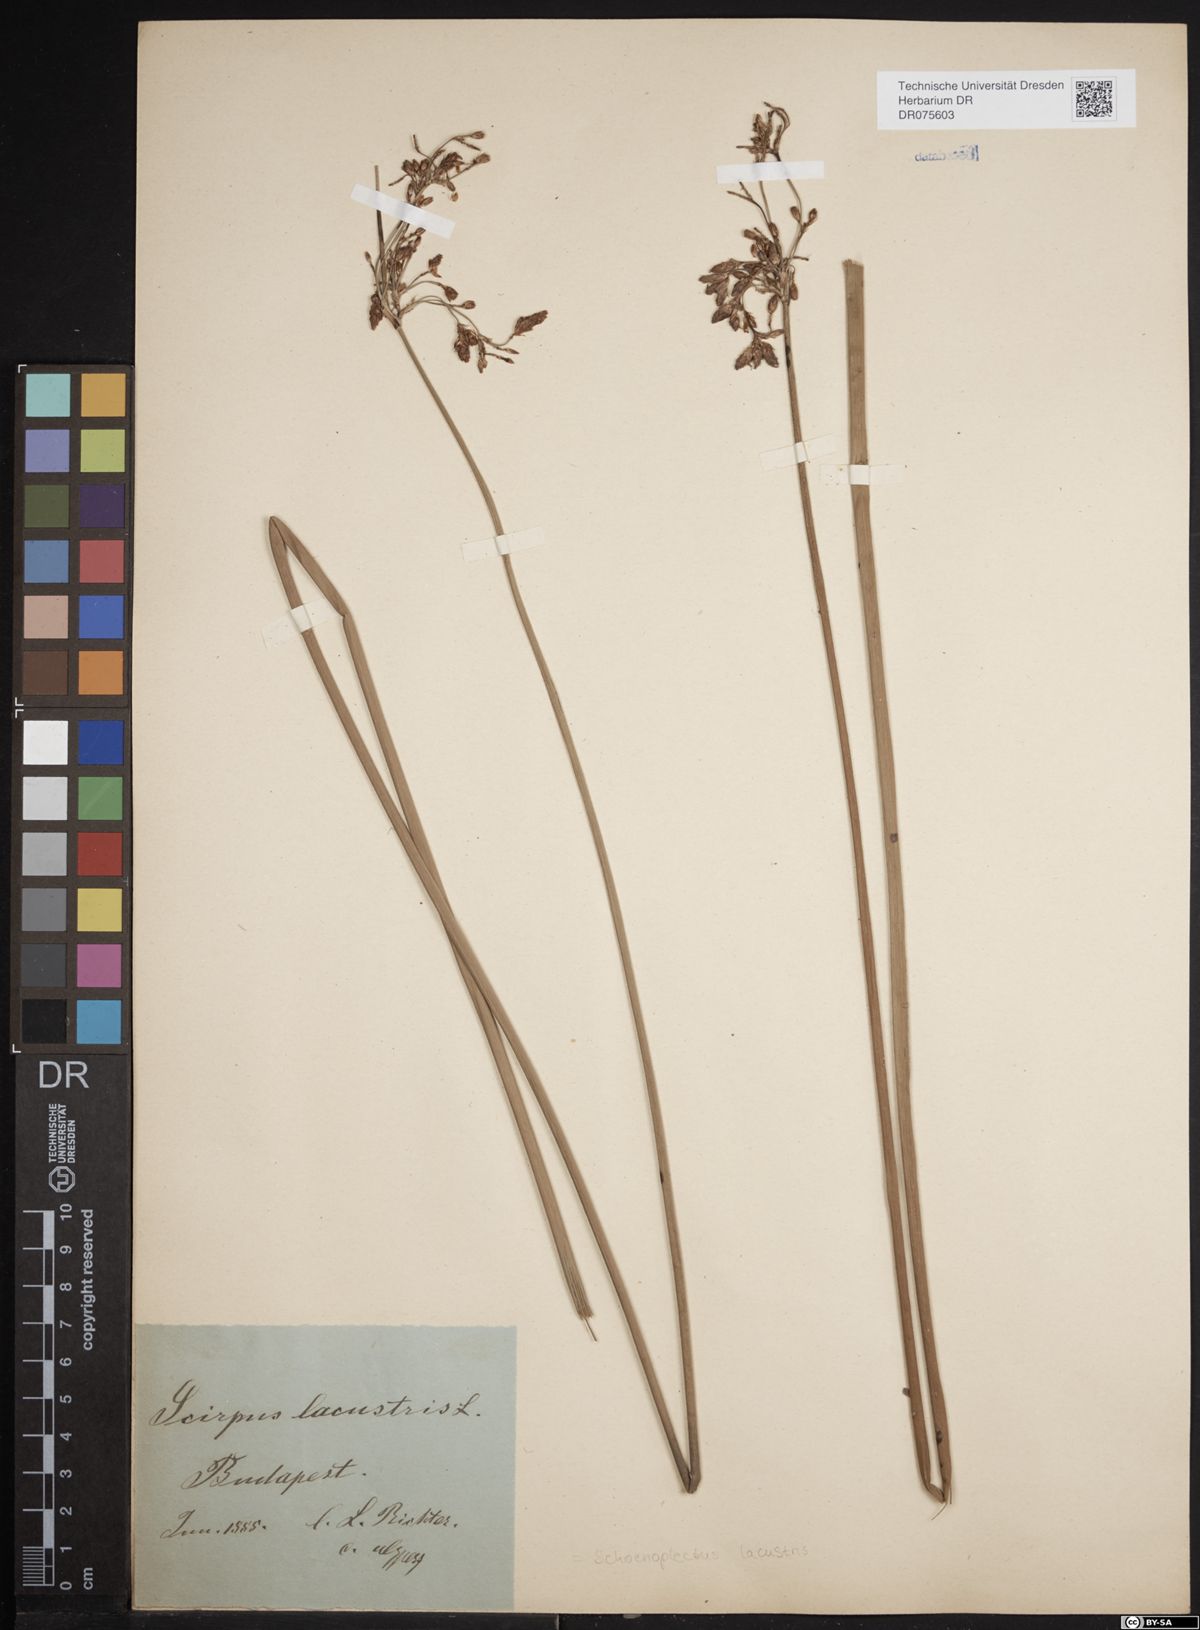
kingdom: Plantae
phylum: Tracheophyta
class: Liliopsida
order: Poales
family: Cyperaceae
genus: Schoenoplectus
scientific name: Schoenoplectus lacustris
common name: Common club-rush
